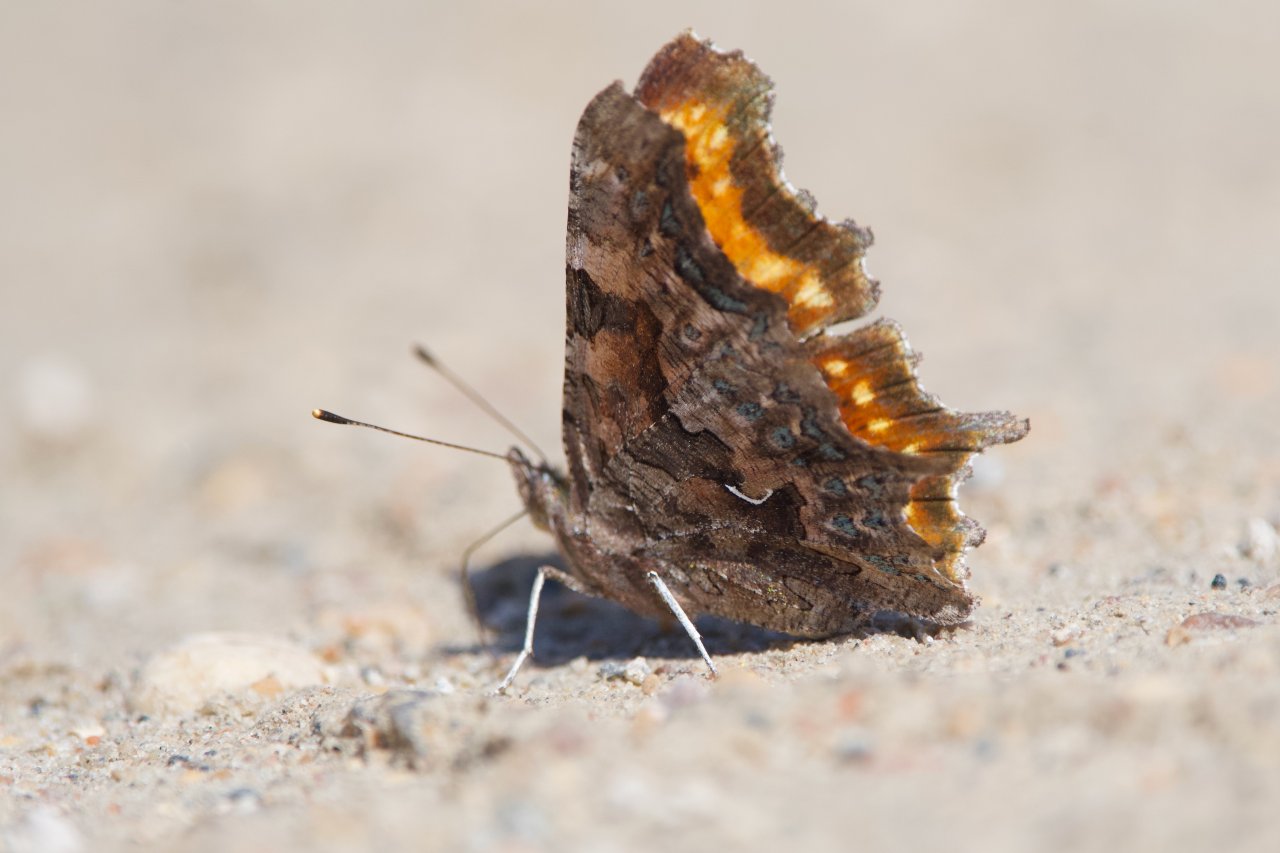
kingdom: Animalia
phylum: Arthropoda
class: Insecta
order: Lepidoptera
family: Nymphalidae
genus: Polygonia
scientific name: Polygonia faunus
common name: Green Comma
